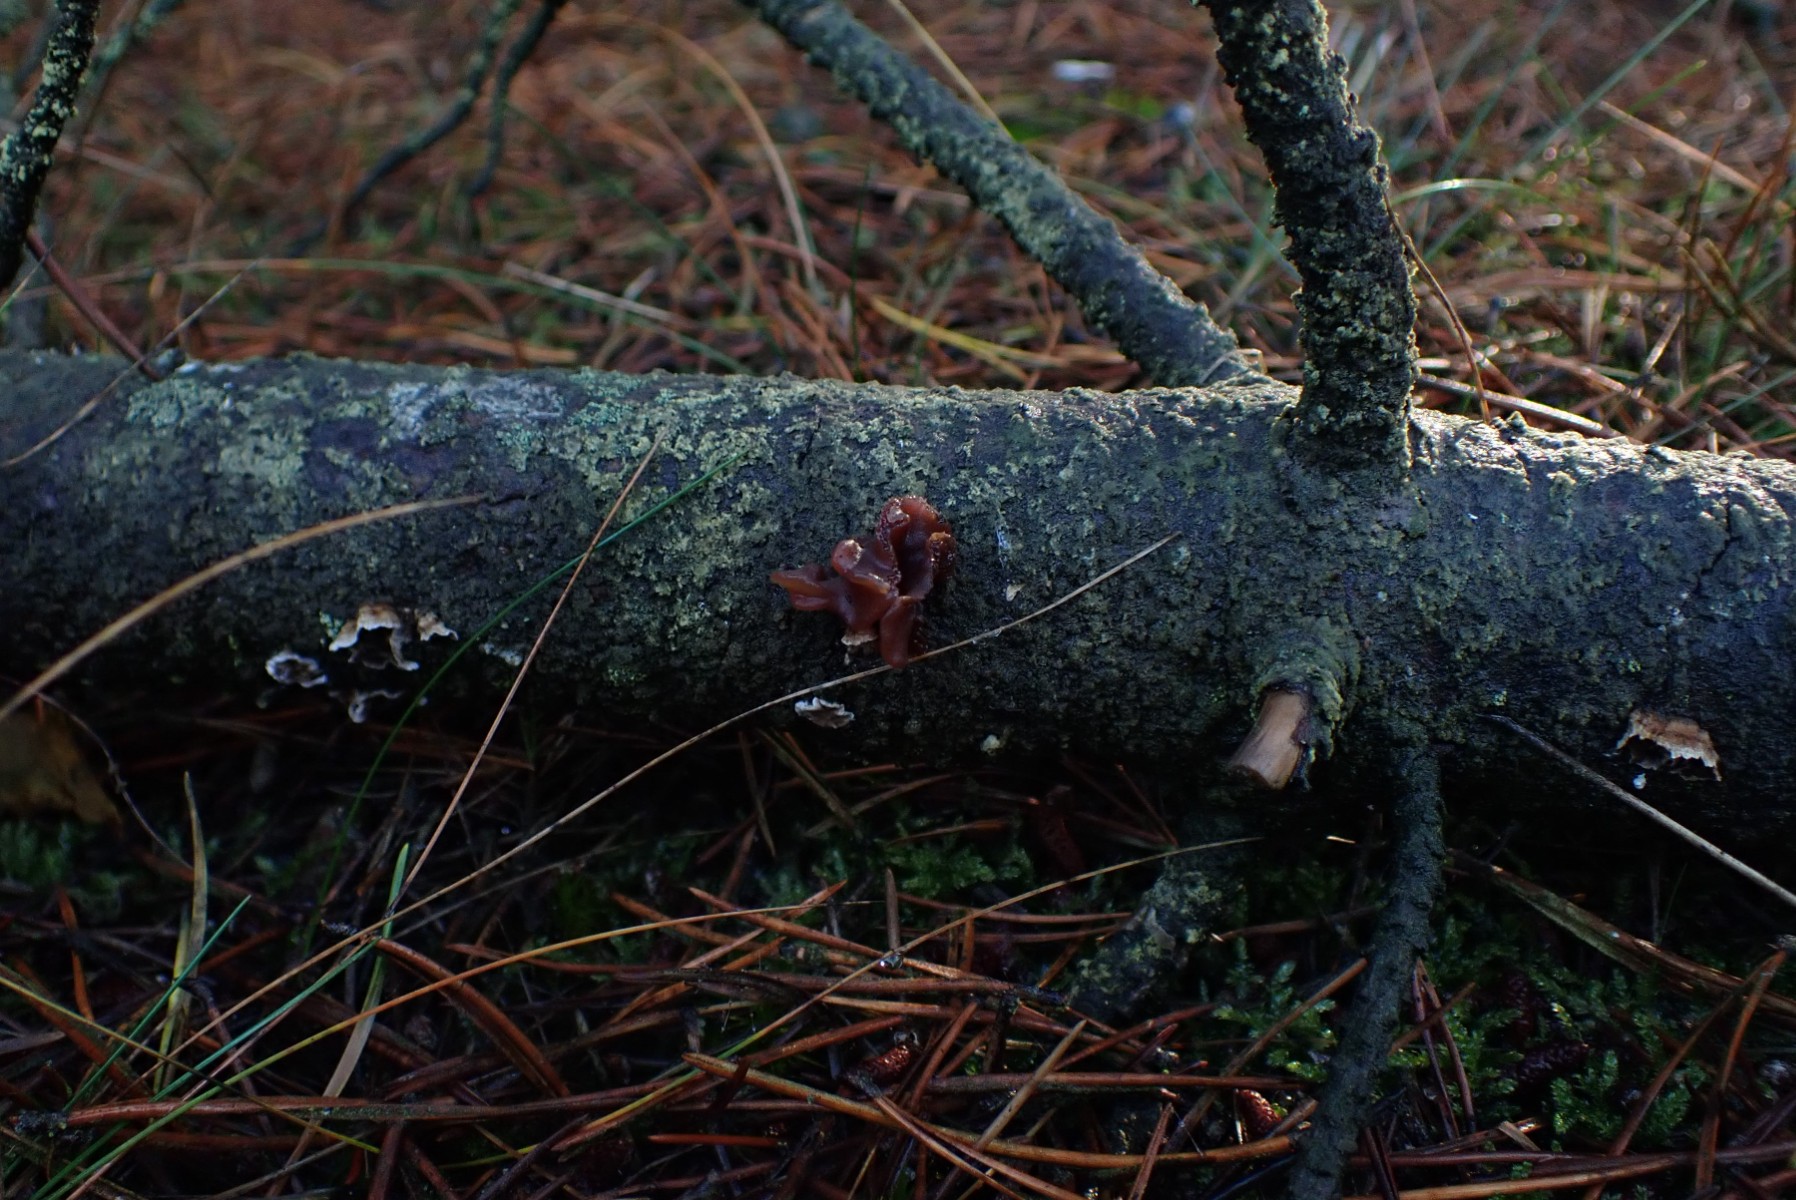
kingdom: Fungi
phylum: Basidiomycota
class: Tremellomycetes
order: Tremellales
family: Tremellaceae
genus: Phaeotremella
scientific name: Phaeotremella foliacea
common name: brun bævresvamp
